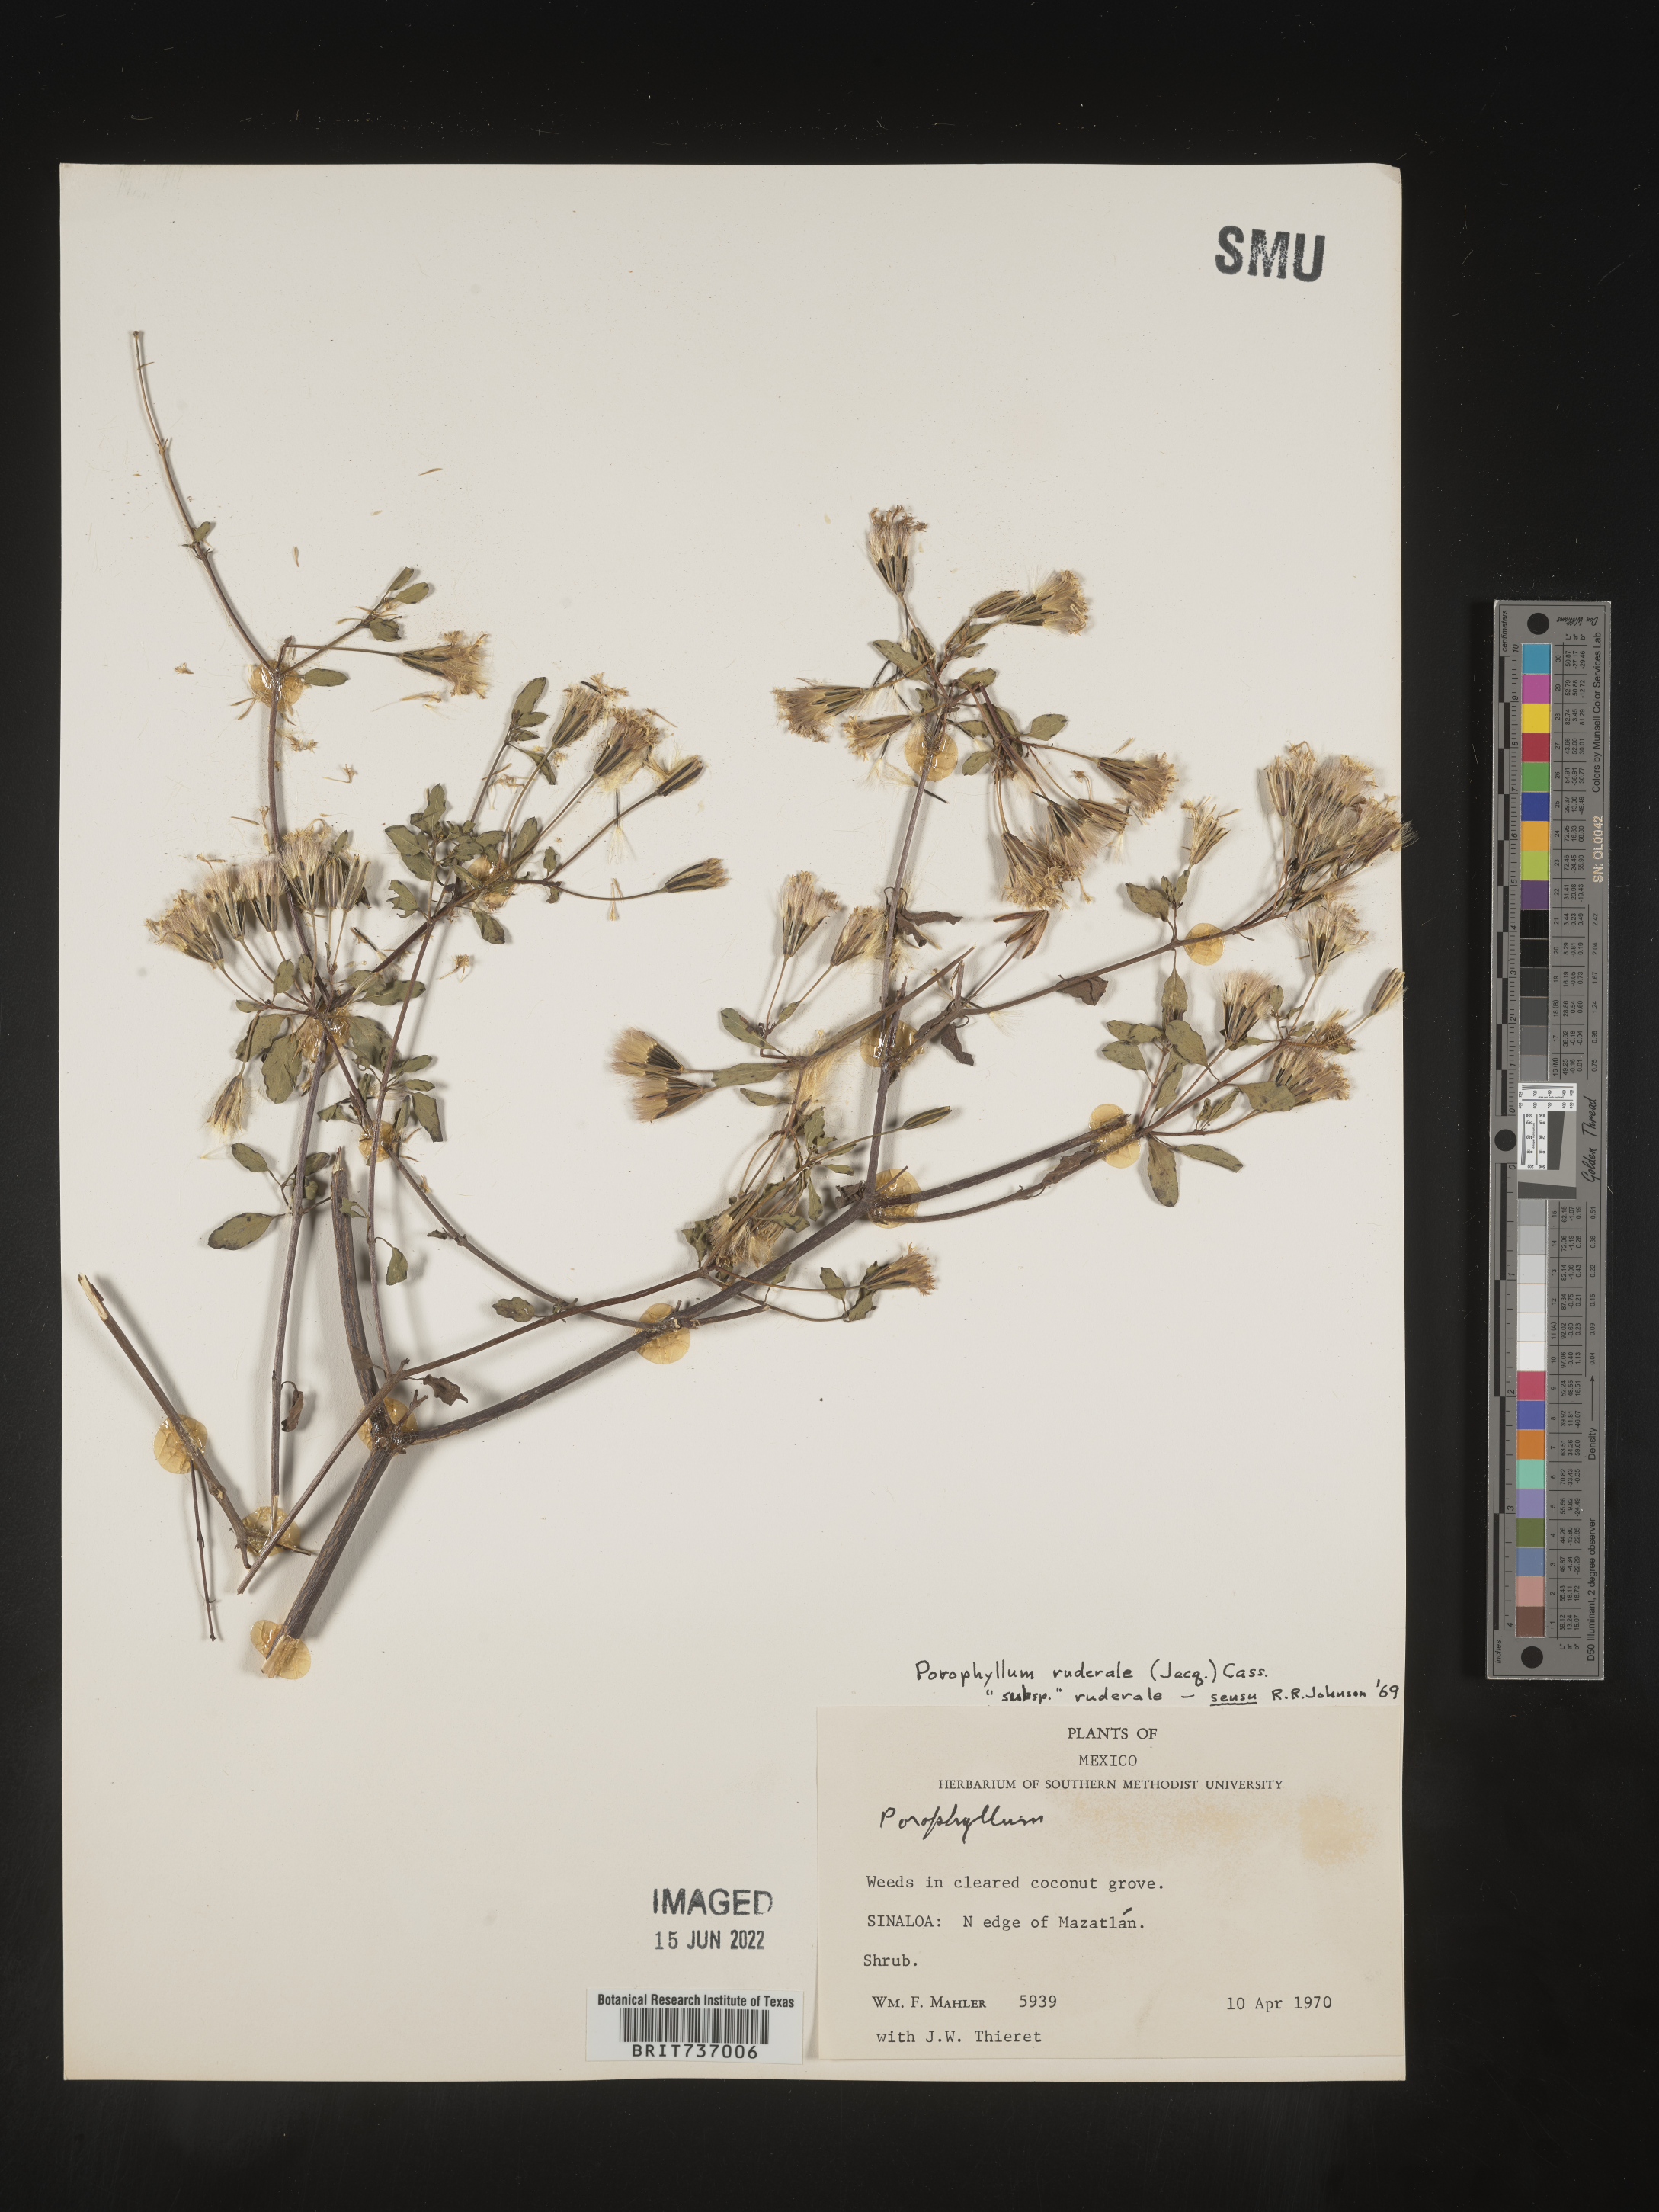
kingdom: Plantae
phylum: Tracheophyta
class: Magnoliopsida
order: Asterales
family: Asteraceae
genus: Porophyllum
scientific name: Porophyllum
